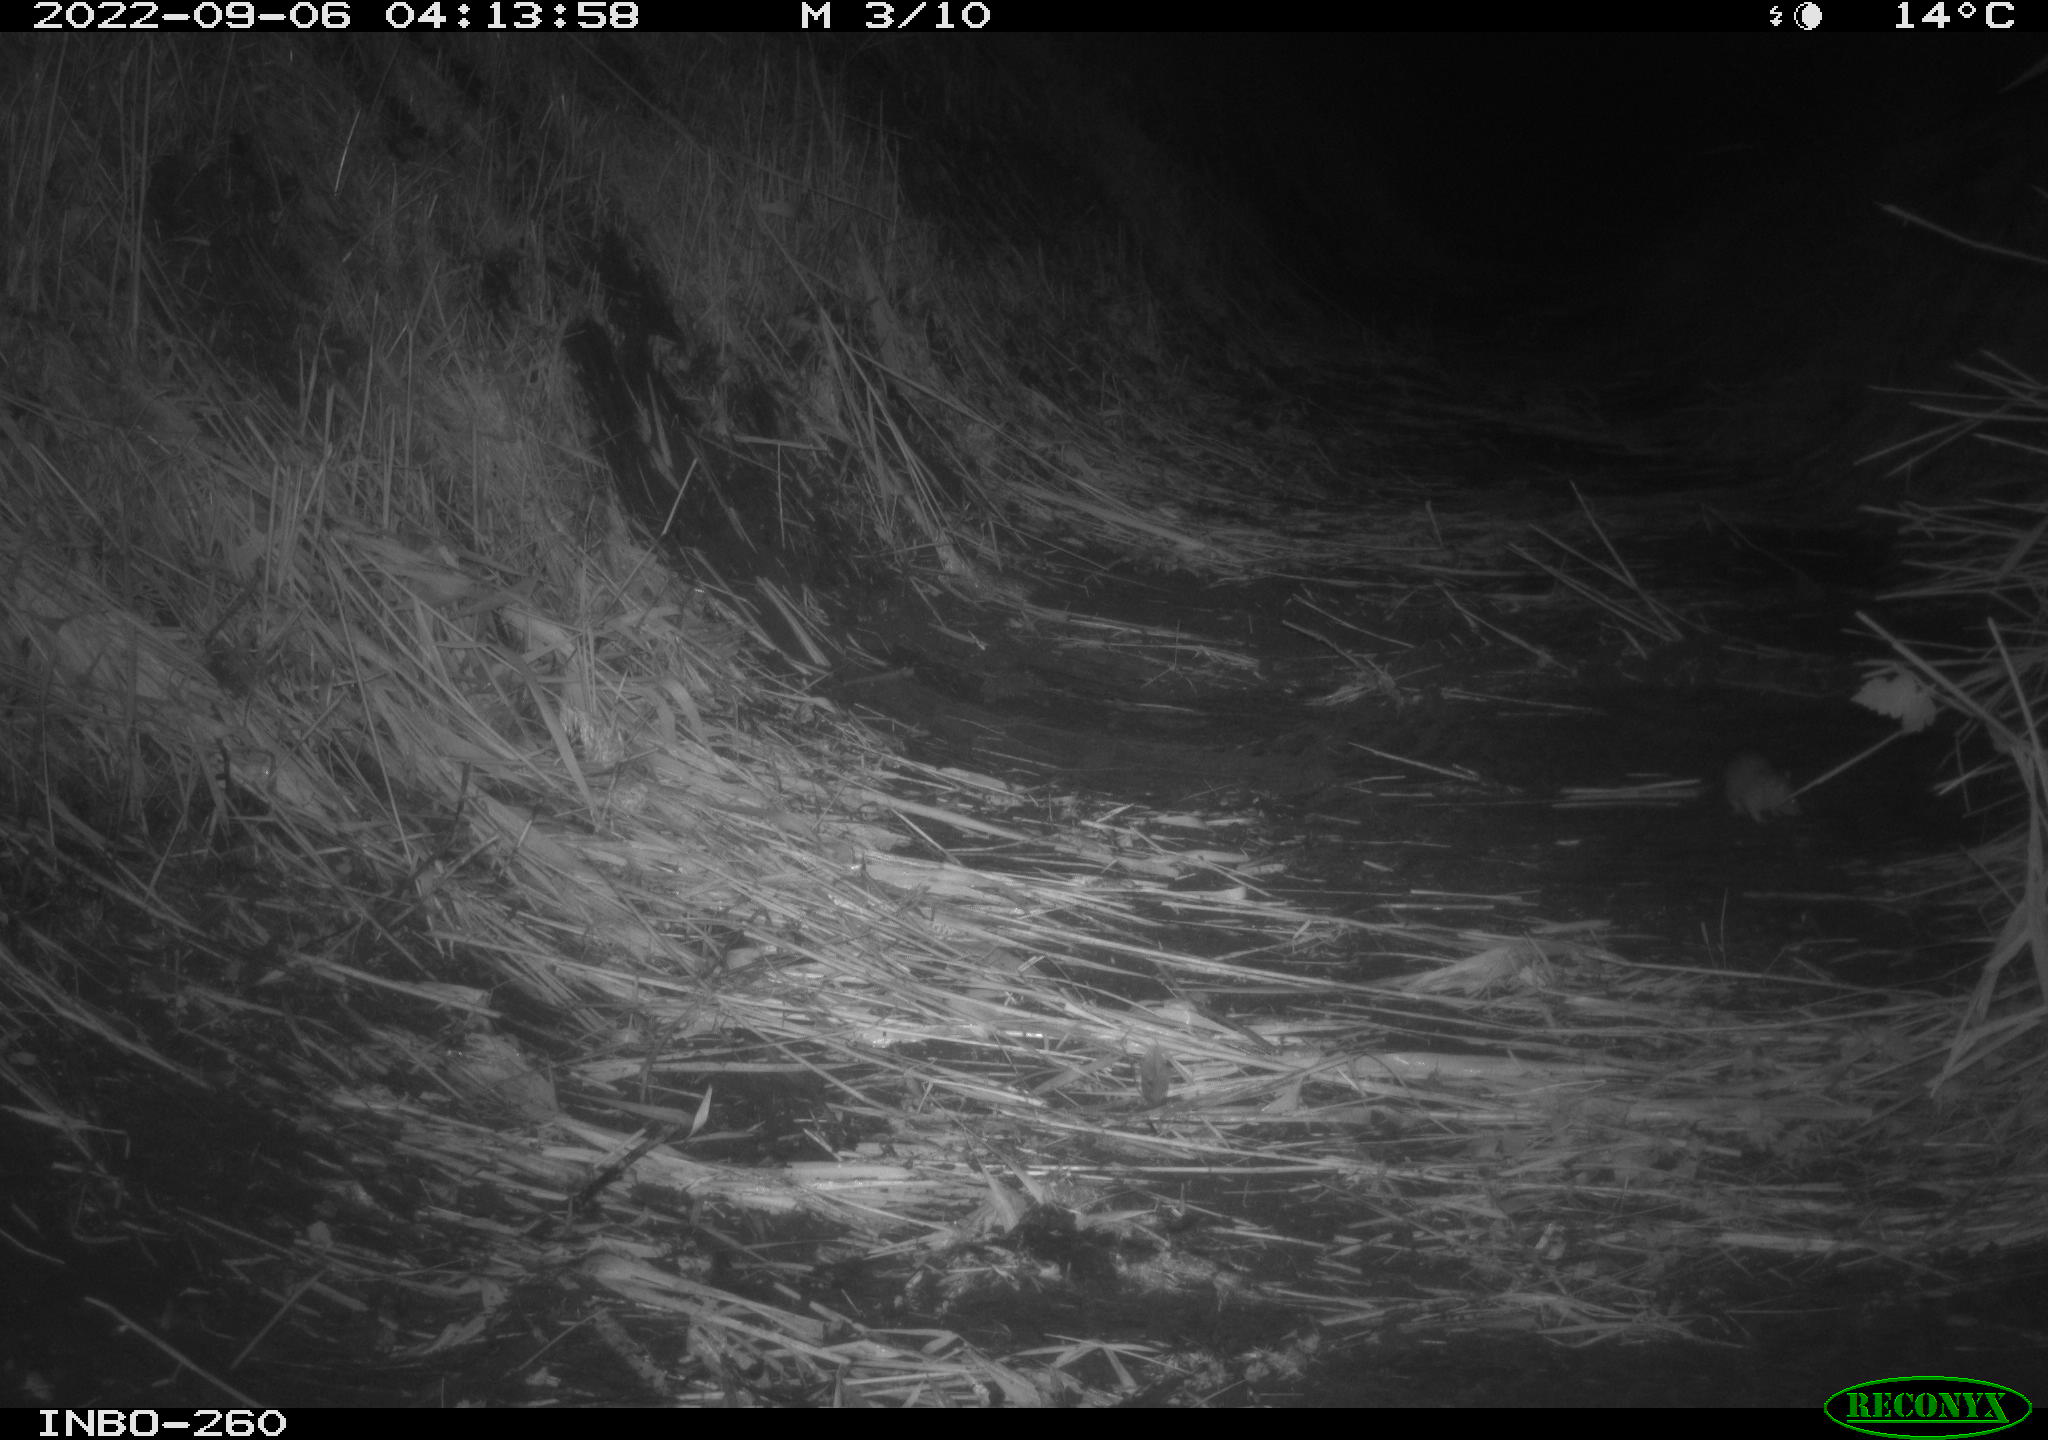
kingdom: Animalia
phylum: Chordata
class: Mammalia
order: Rodentia
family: Muridae
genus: Rattus
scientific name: Rattus norvegicus
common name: Brown rat
